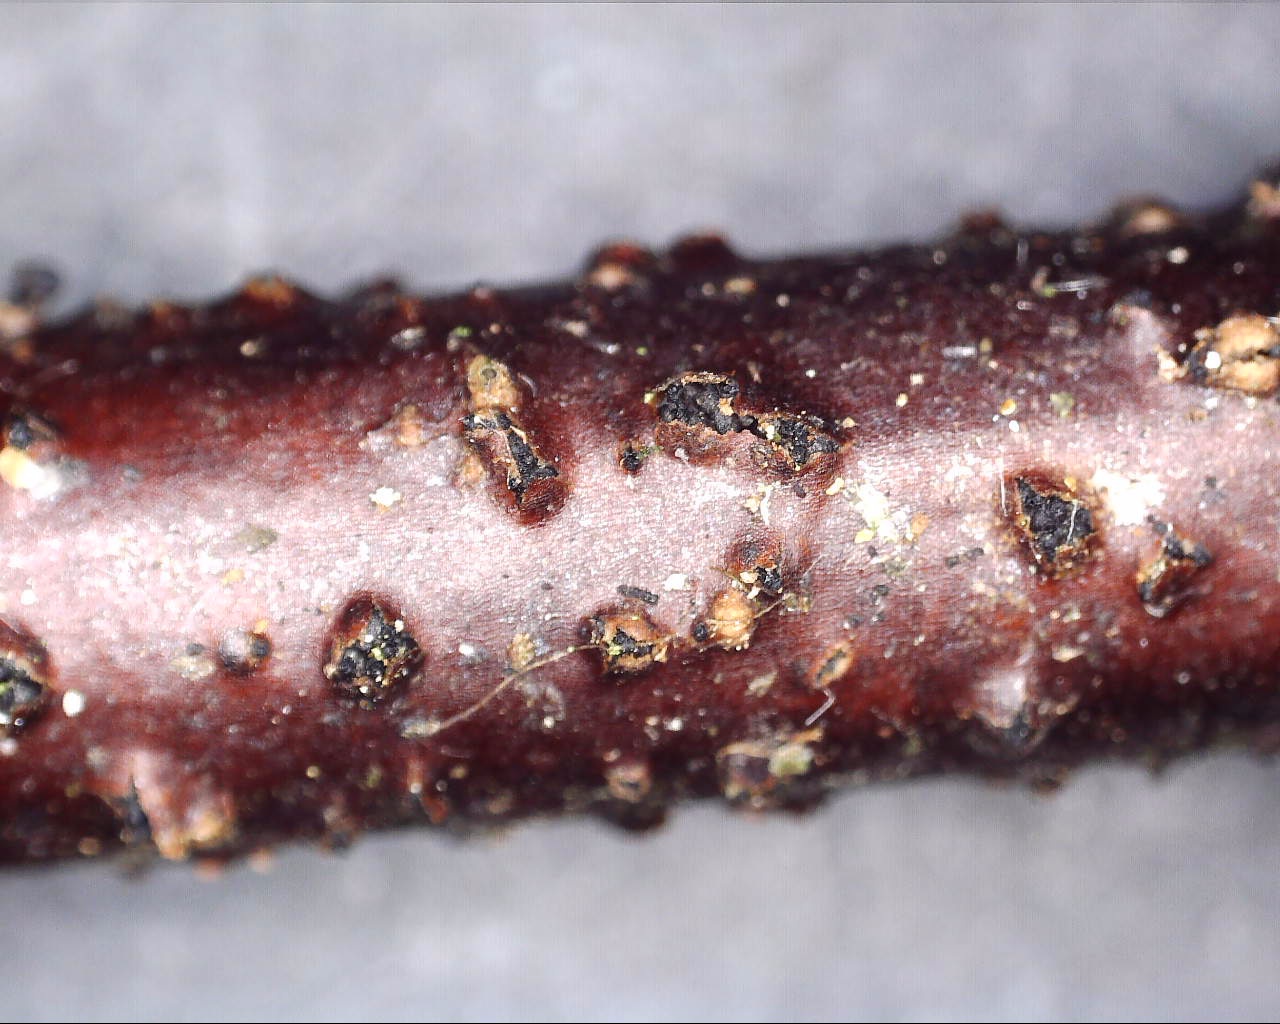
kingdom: Fungi
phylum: Ascomycota
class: Sordariomycetes
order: Amphisphaeriales
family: Amphisphaeriaceae
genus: Ceriospora
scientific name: Ceriospora ribis
